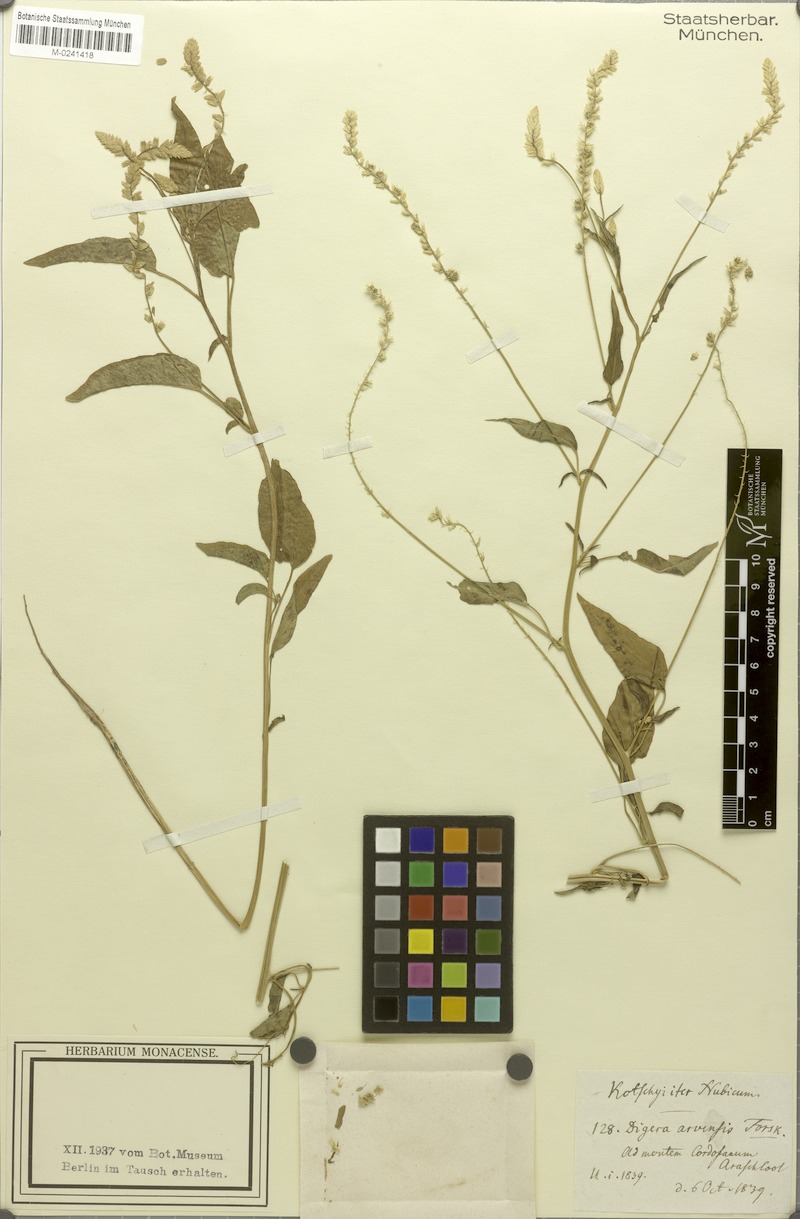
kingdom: Plantae
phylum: Tracheophyta
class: Magnoliopsida
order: Caryophyllales
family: Amaranthaceae
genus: Digera
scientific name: Digera muricata
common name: False amaranth
